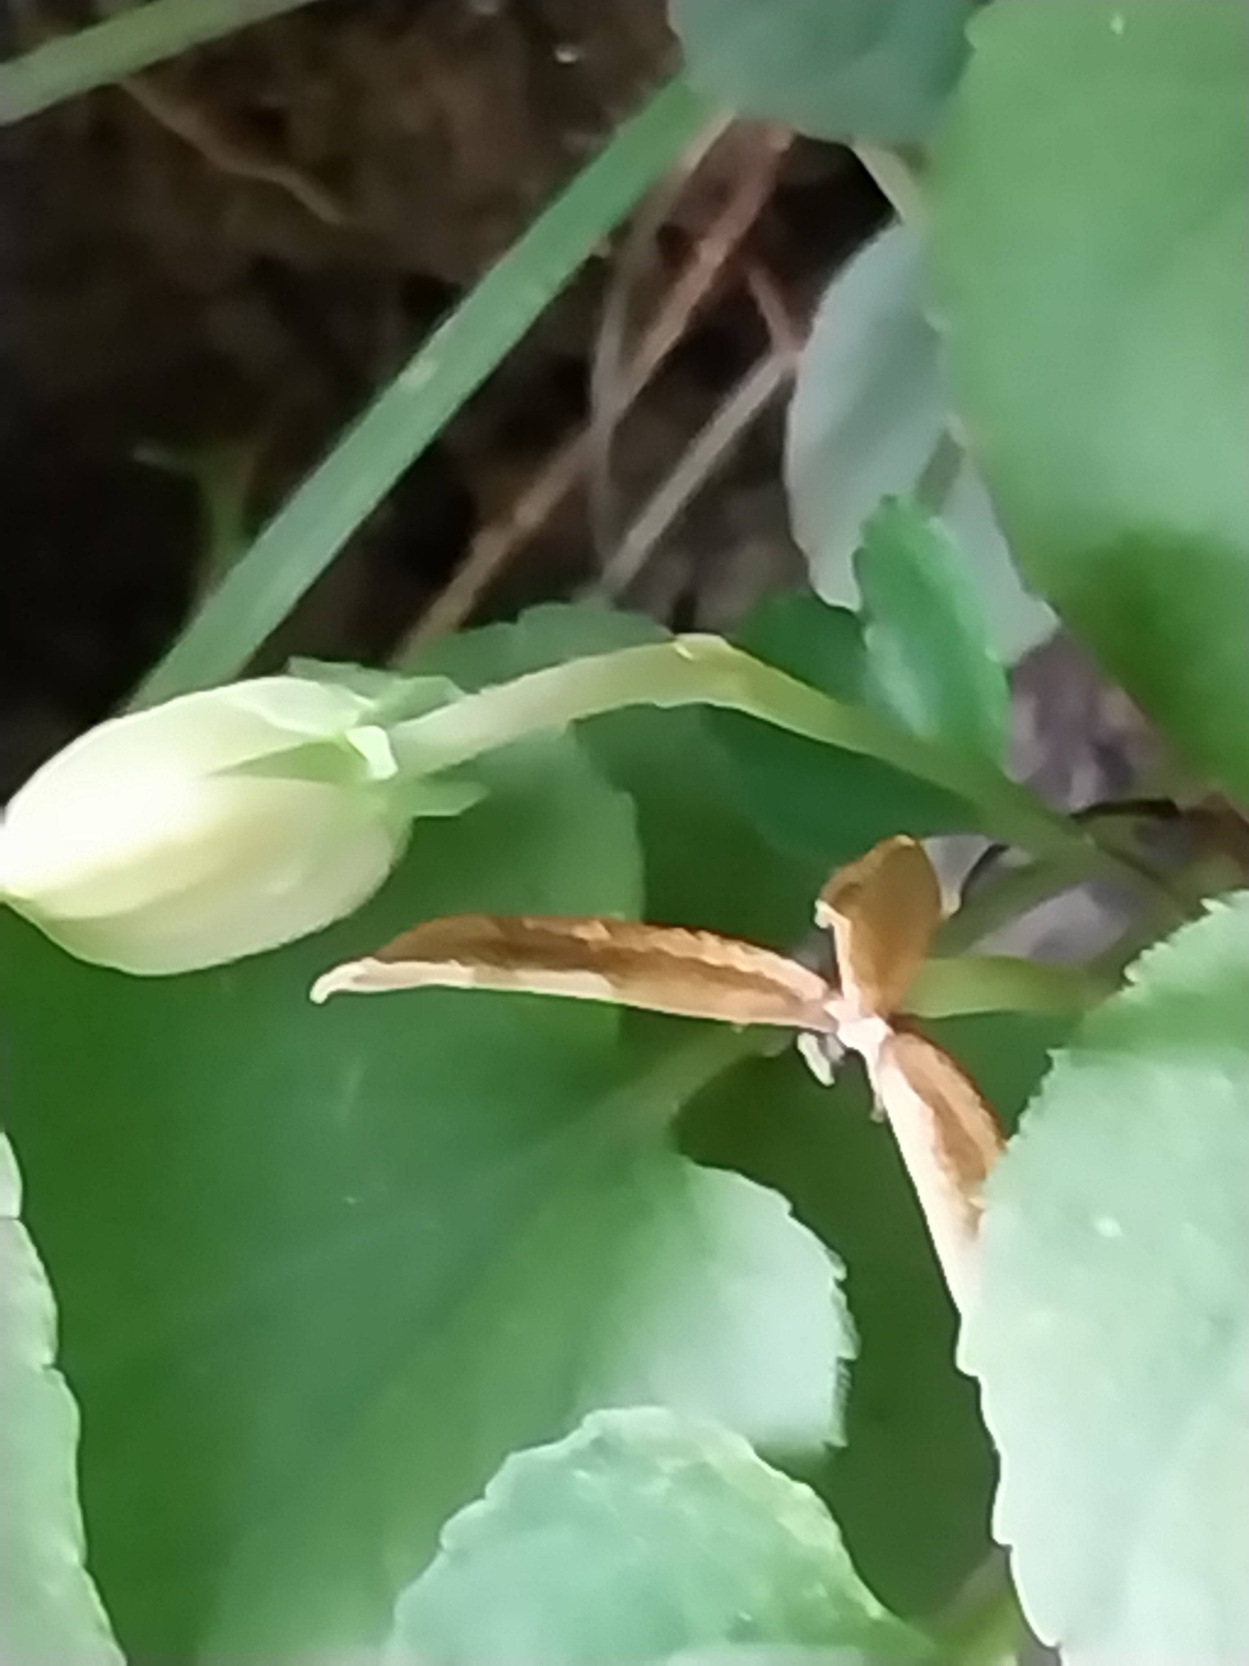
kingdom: Plantae
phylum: Tracheophyta
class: Magnoliopsida
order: Malpighiales
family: Violaceae
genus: Viola
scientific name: Viola riviniana
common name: Krat-viol
